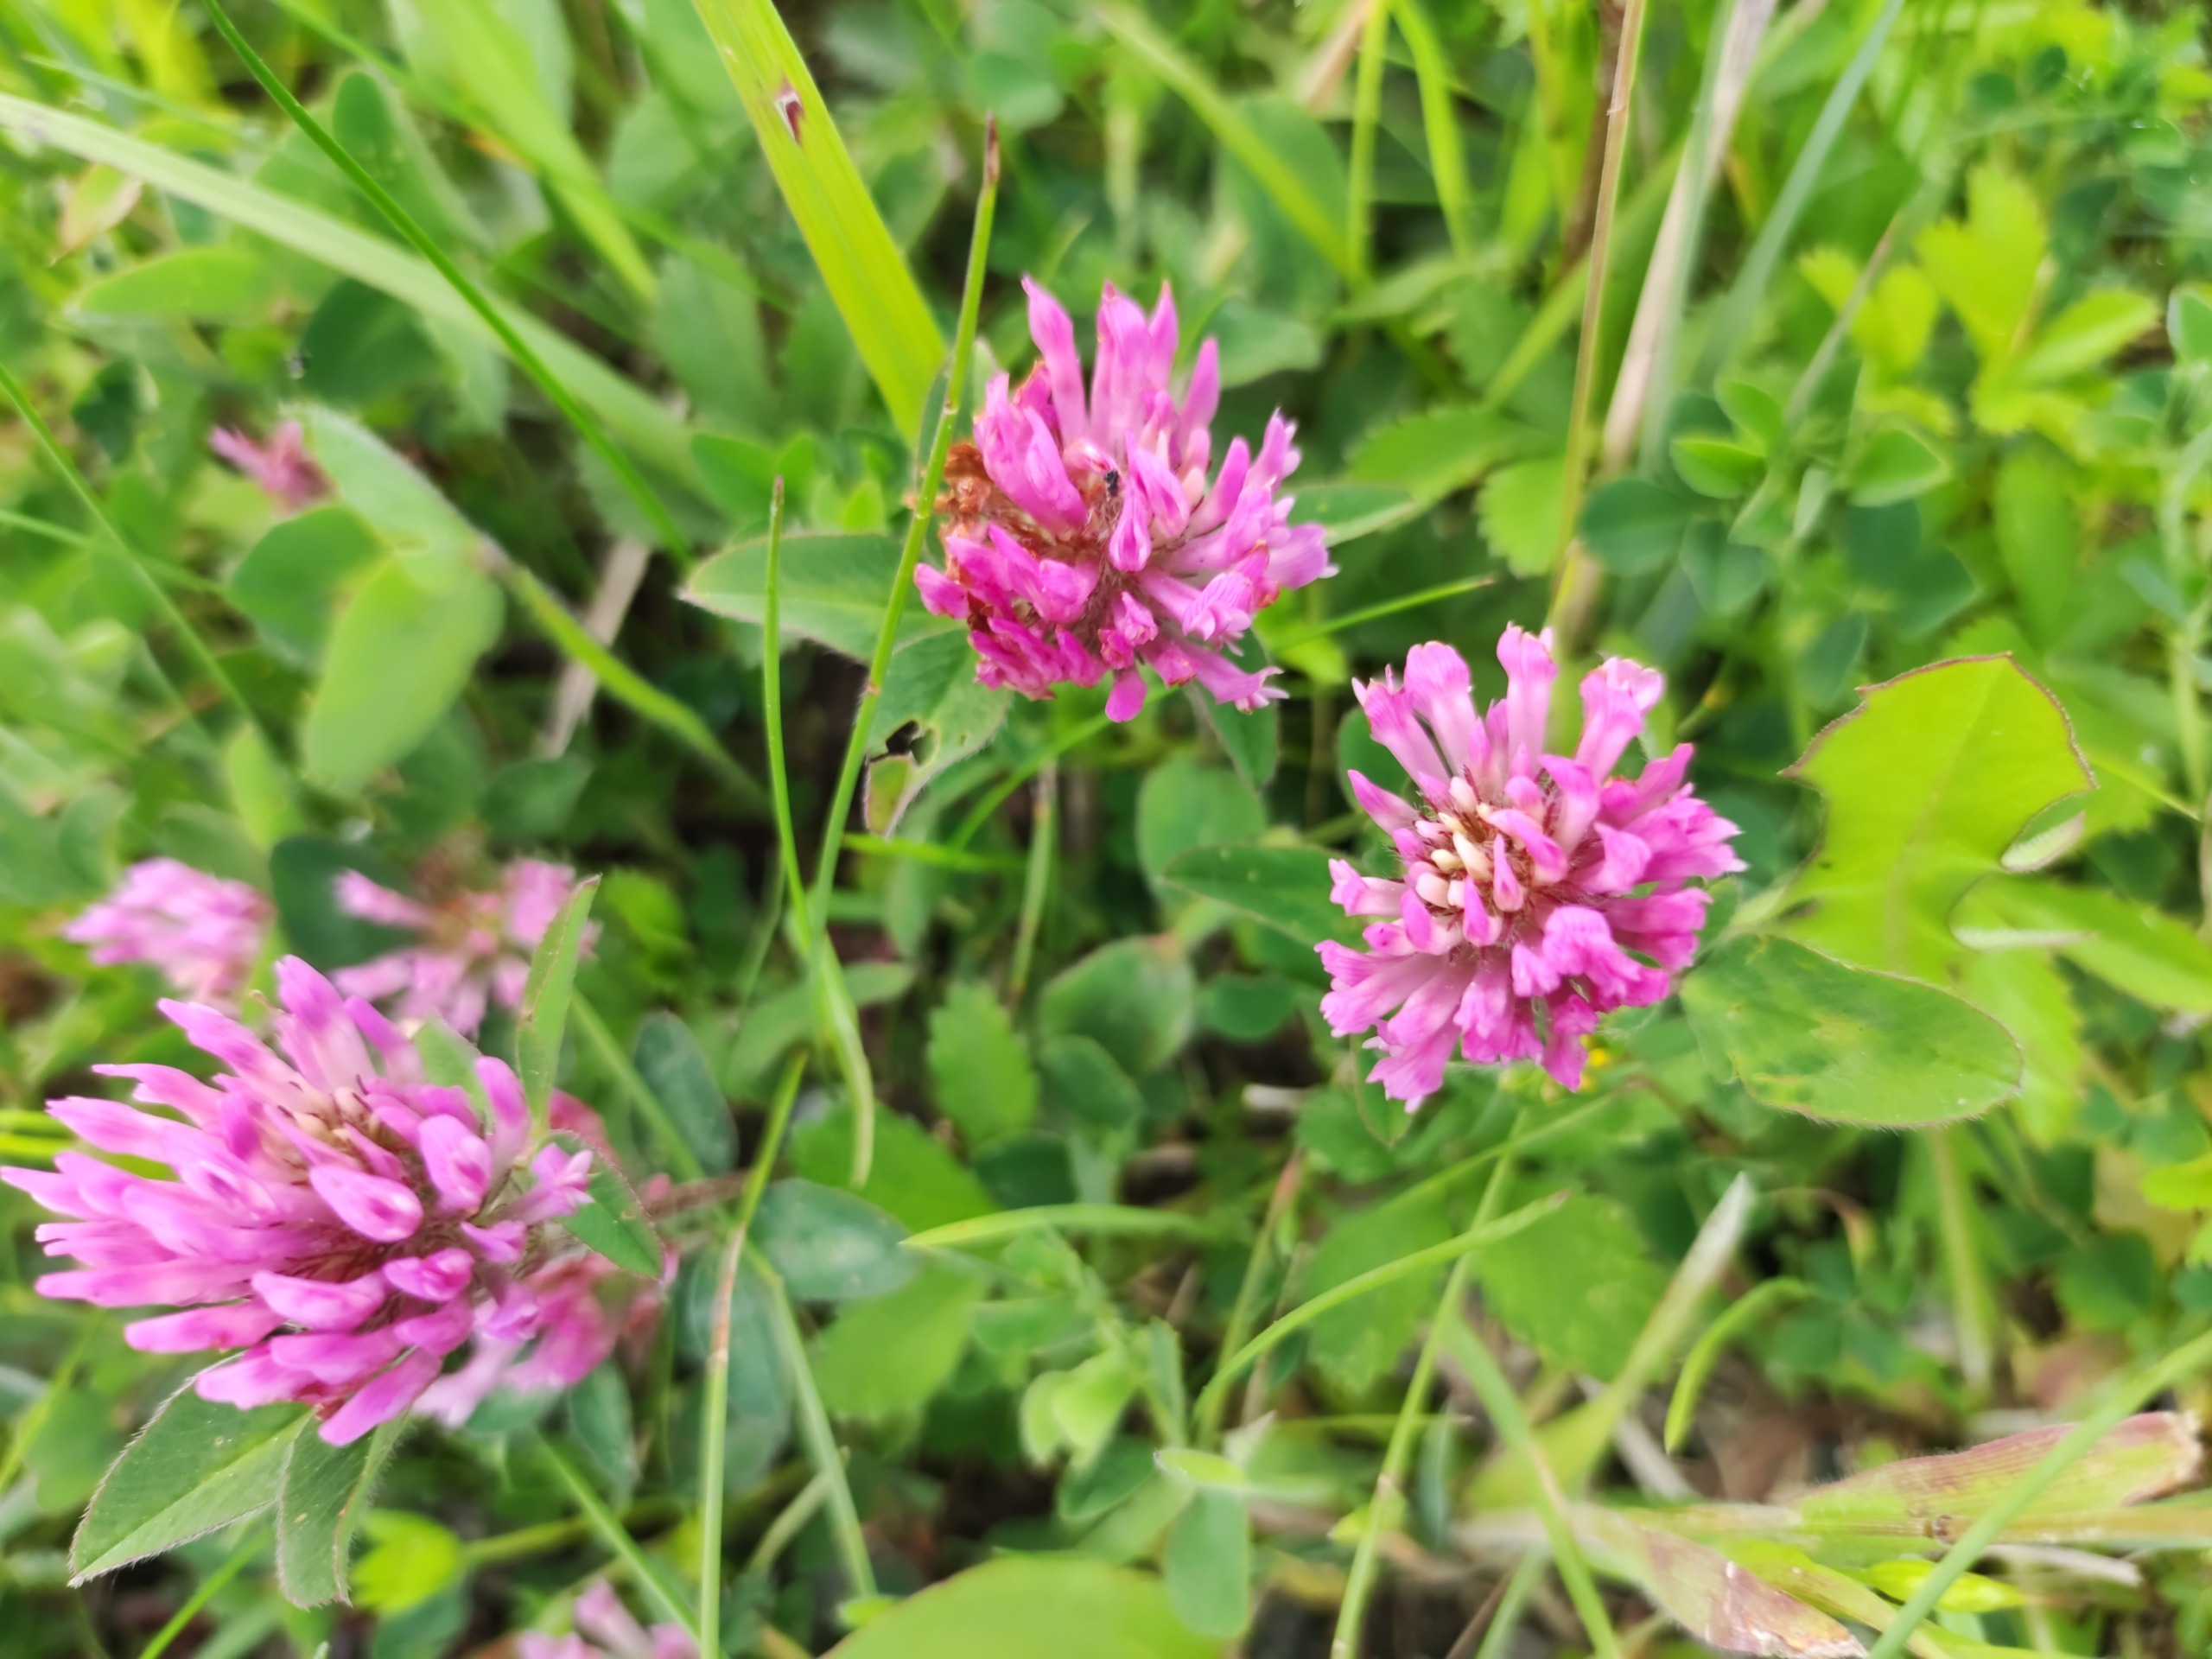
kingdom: Plantae
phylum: Tracheophyta
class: Magnoliopsida
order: Fabales
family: Fabaceae
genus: Trifolium
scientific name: Trifolium pratense
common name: Rød-kløver
